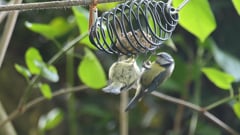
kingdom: Animalia
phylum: Chordata
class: Aves
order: Passeriformes
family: Paridae
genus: Cyanistes
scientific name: Cyanistes caeruleus
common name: Eurasian blue tit
